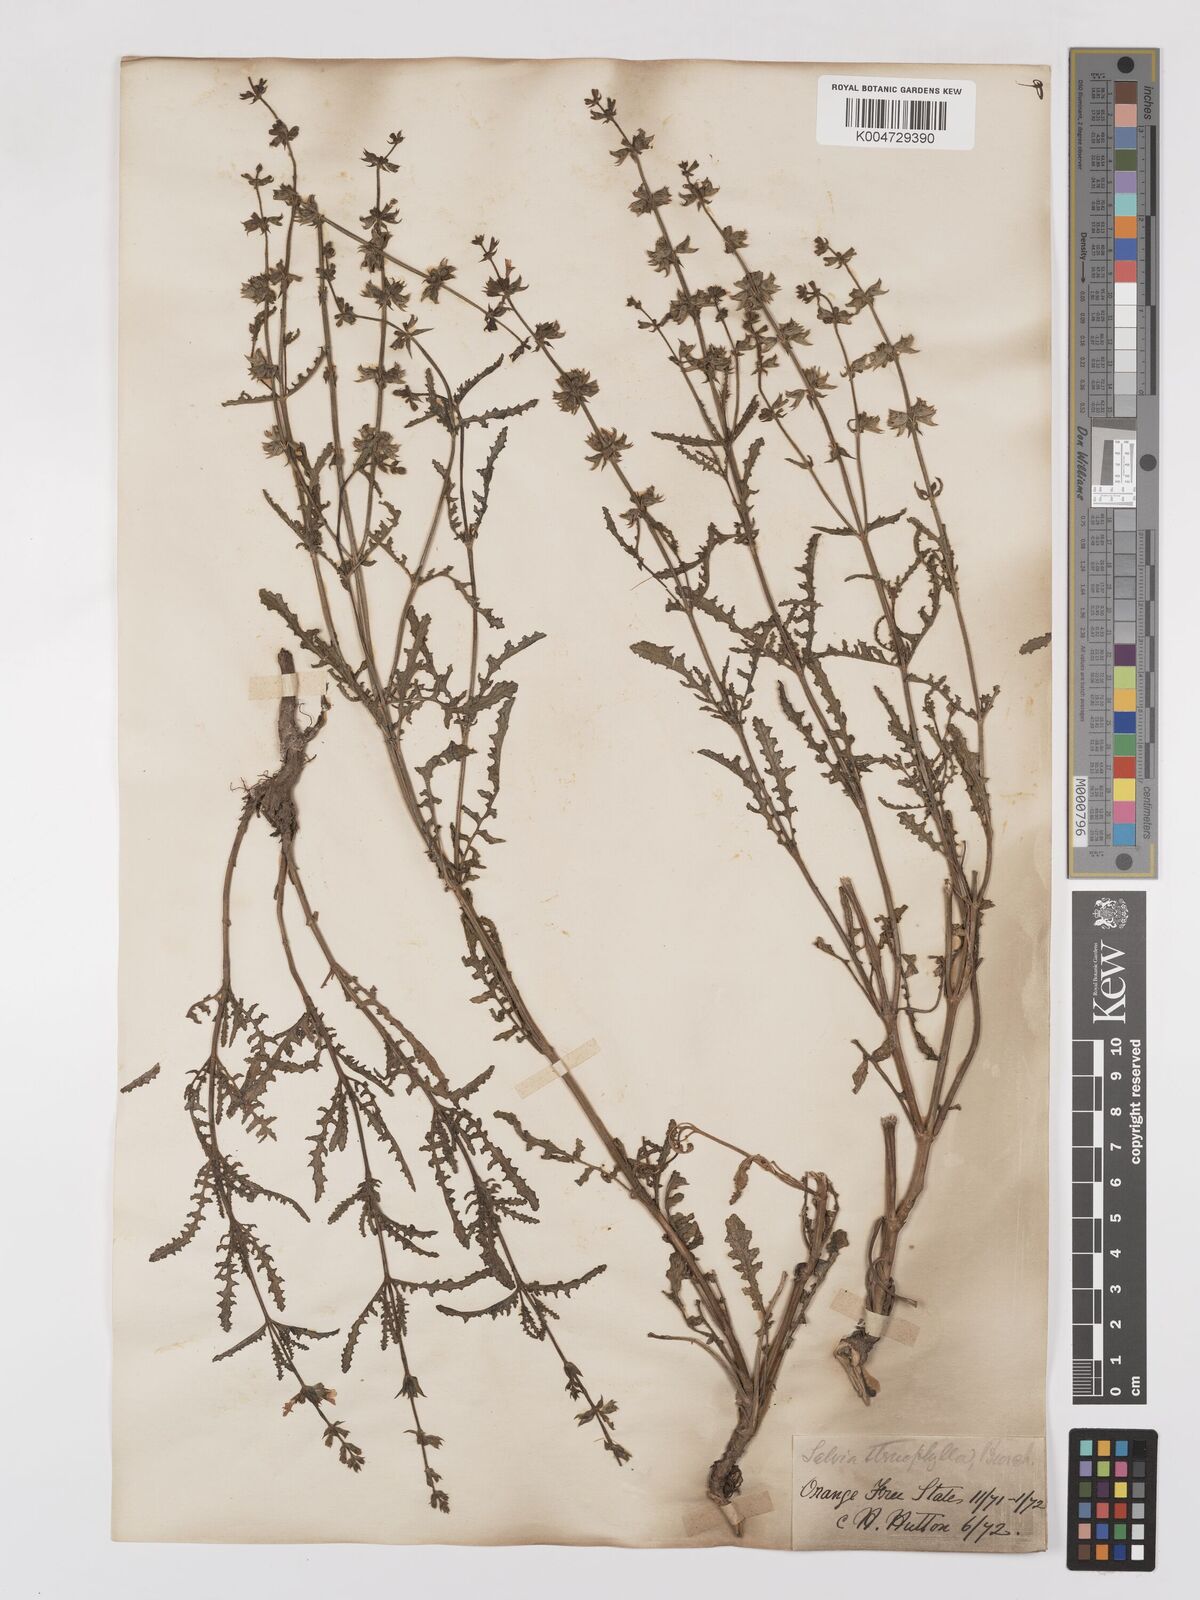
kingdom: Plantae
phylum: Tracheophyta
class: Magnoliopsida
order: Lamiales
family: Lamiaceae
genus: Salvia
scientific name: Salvia stenophylla
